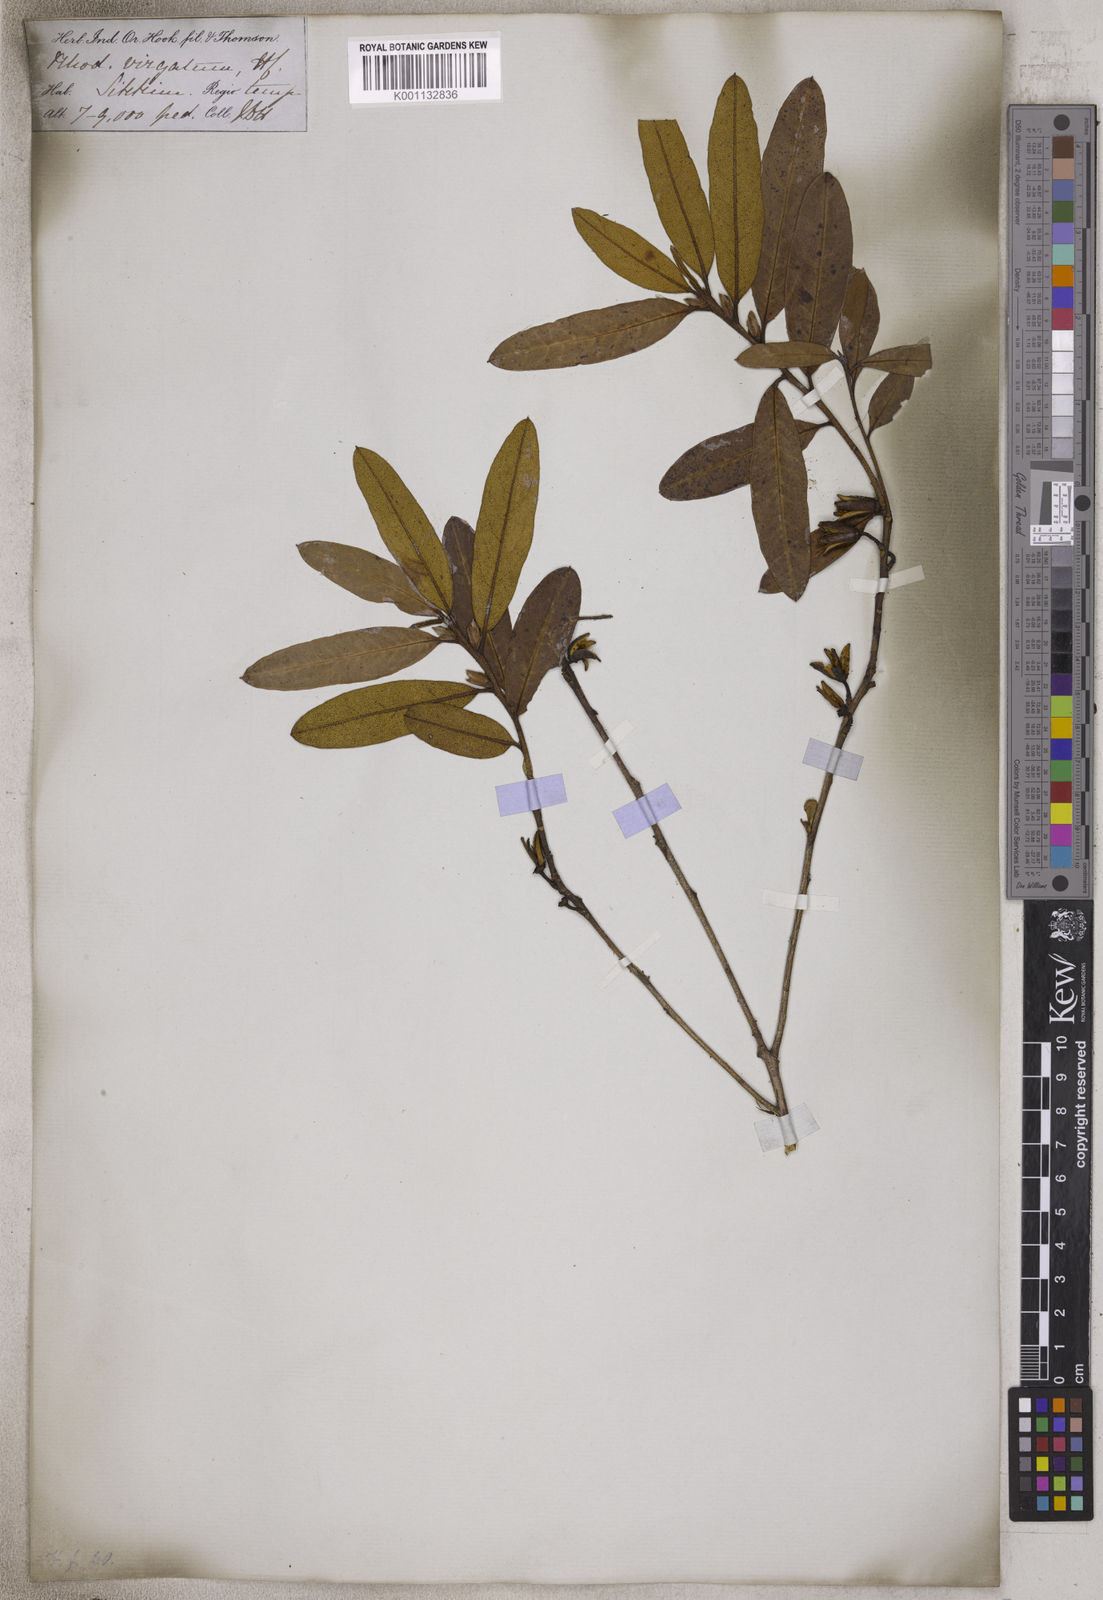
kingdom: Plantae
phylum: Tracheophyta
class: Magnoliopsida
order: Ericales
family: Ericaceae
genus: Rhododendron
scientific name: Rhododendron virgatum
